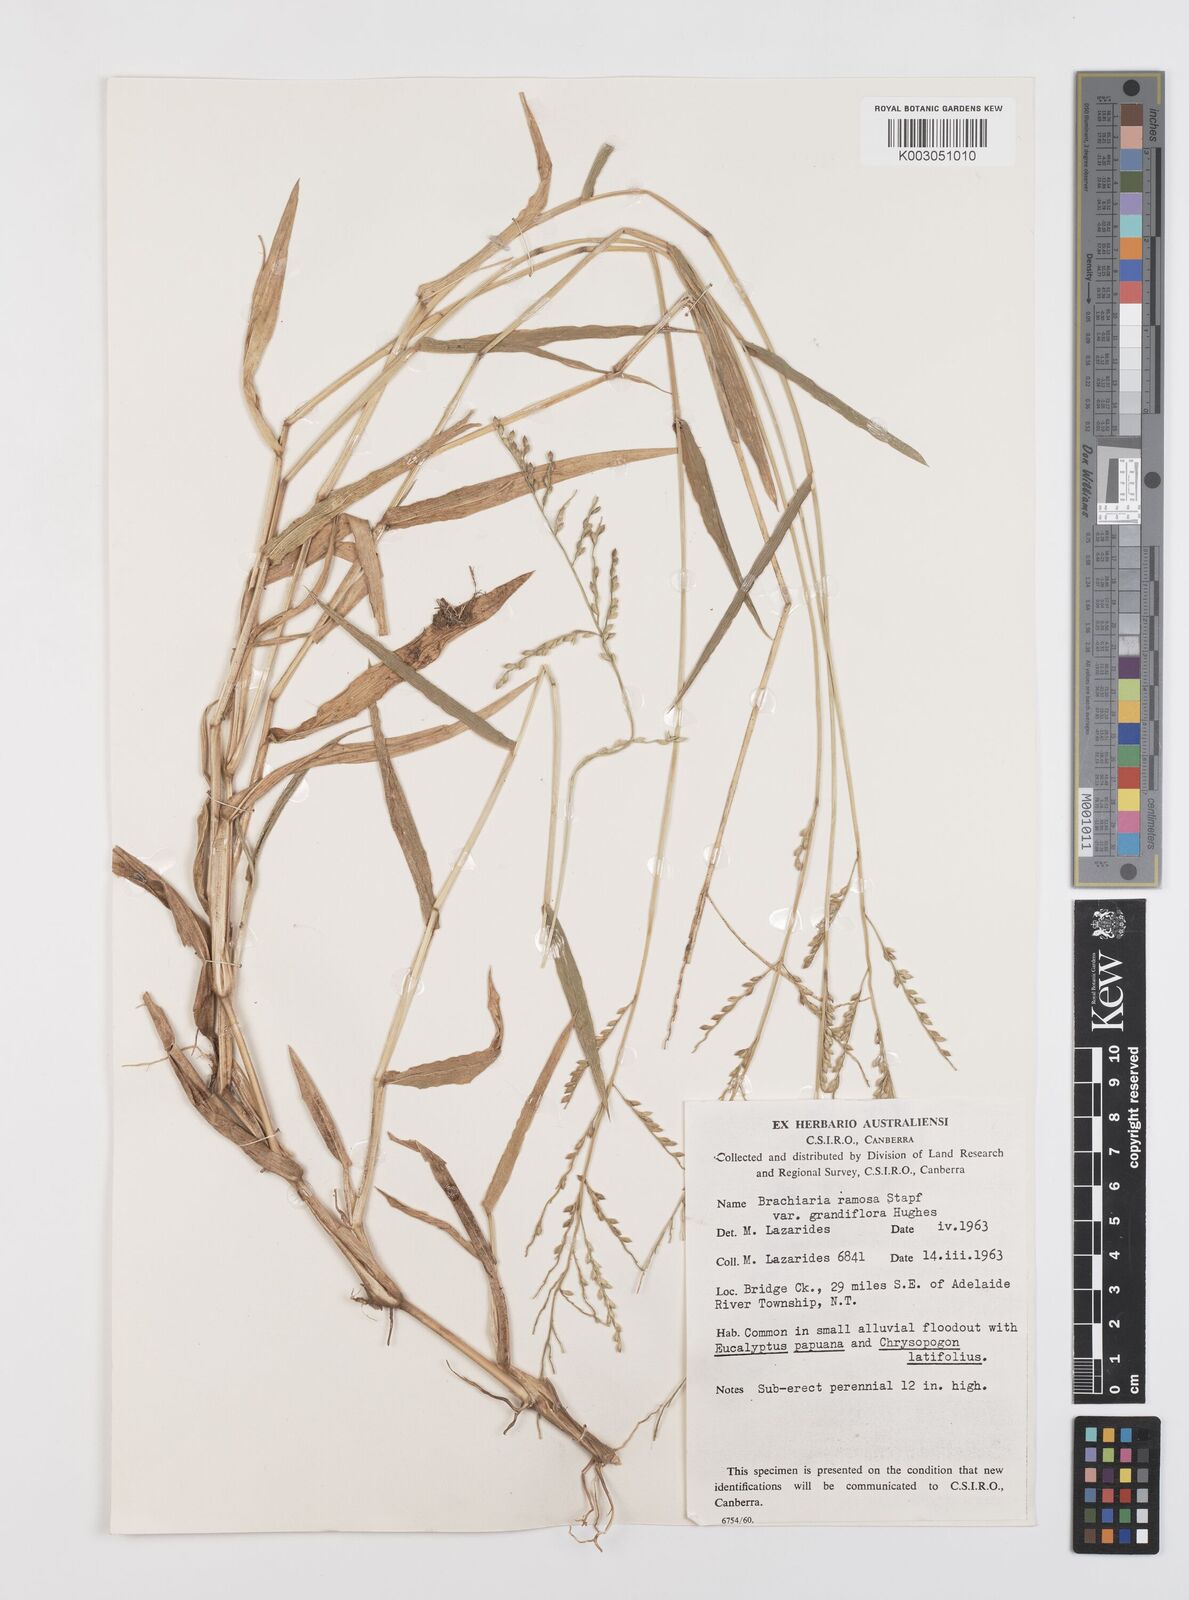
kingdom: Plantae
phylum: Tracheophyta
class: Liliopsida
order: Poales
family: Poaceae
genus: Urochloa
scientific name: Urochloa pubigera
